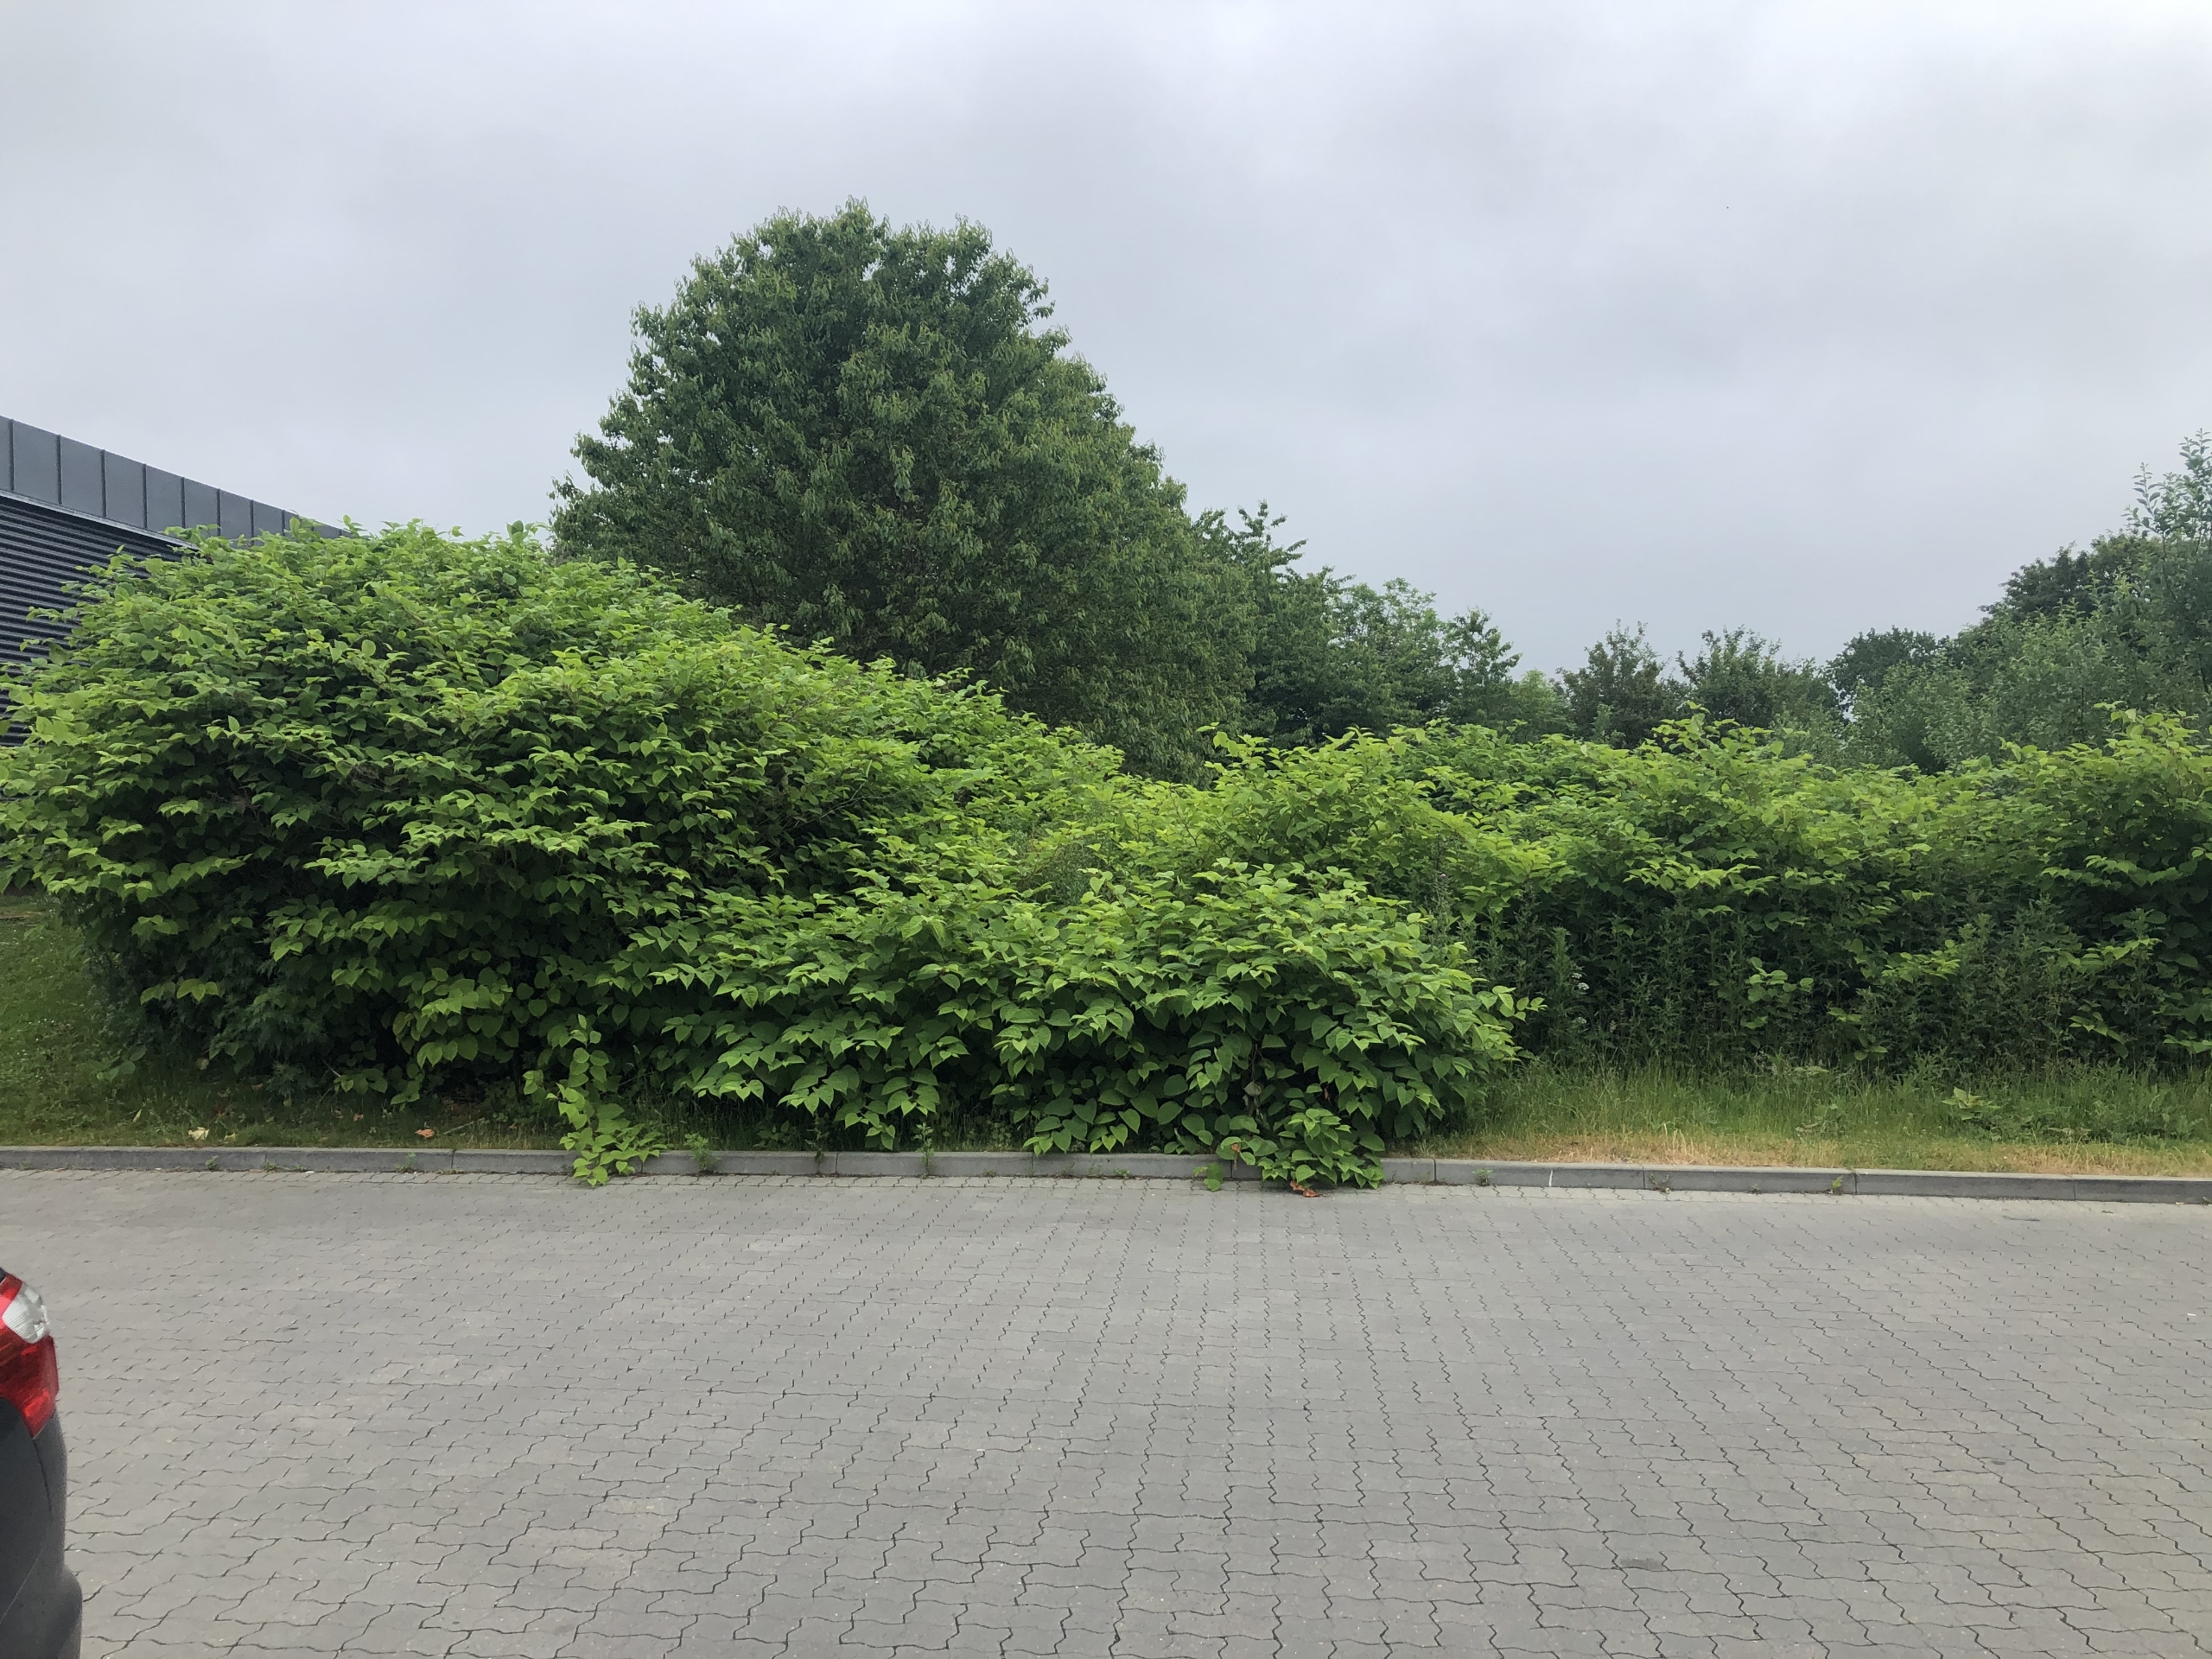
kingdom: Plantae
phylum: Tracheophyta
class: Magnoliopsida
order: Caryophyllales
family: Polygonaceae
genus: Reynoutria
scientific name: Reynoutria japonica
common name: Japan-pileurt
